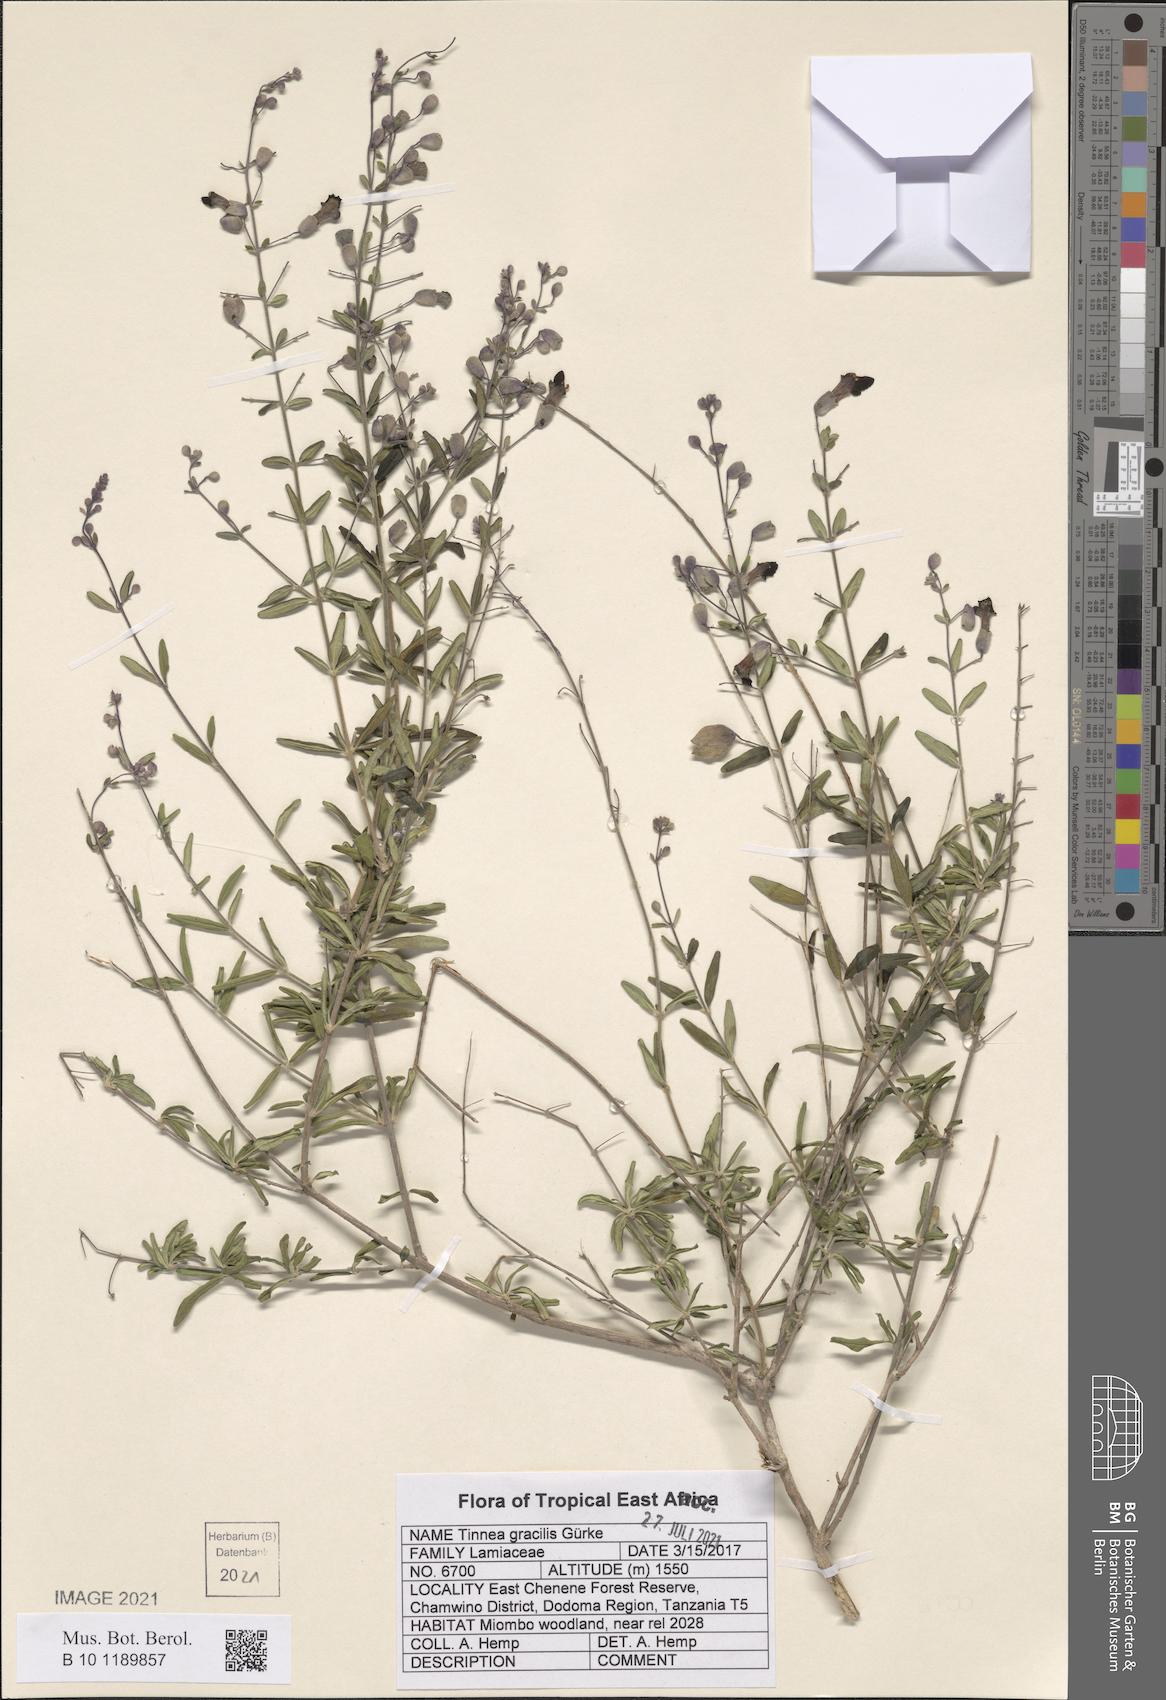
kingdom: Plantae
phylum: Tracheophyta
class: Magnoliopsida
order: Lamiales
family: Lamiaceae
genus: Tinnea
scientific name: Tinnea gracilis
